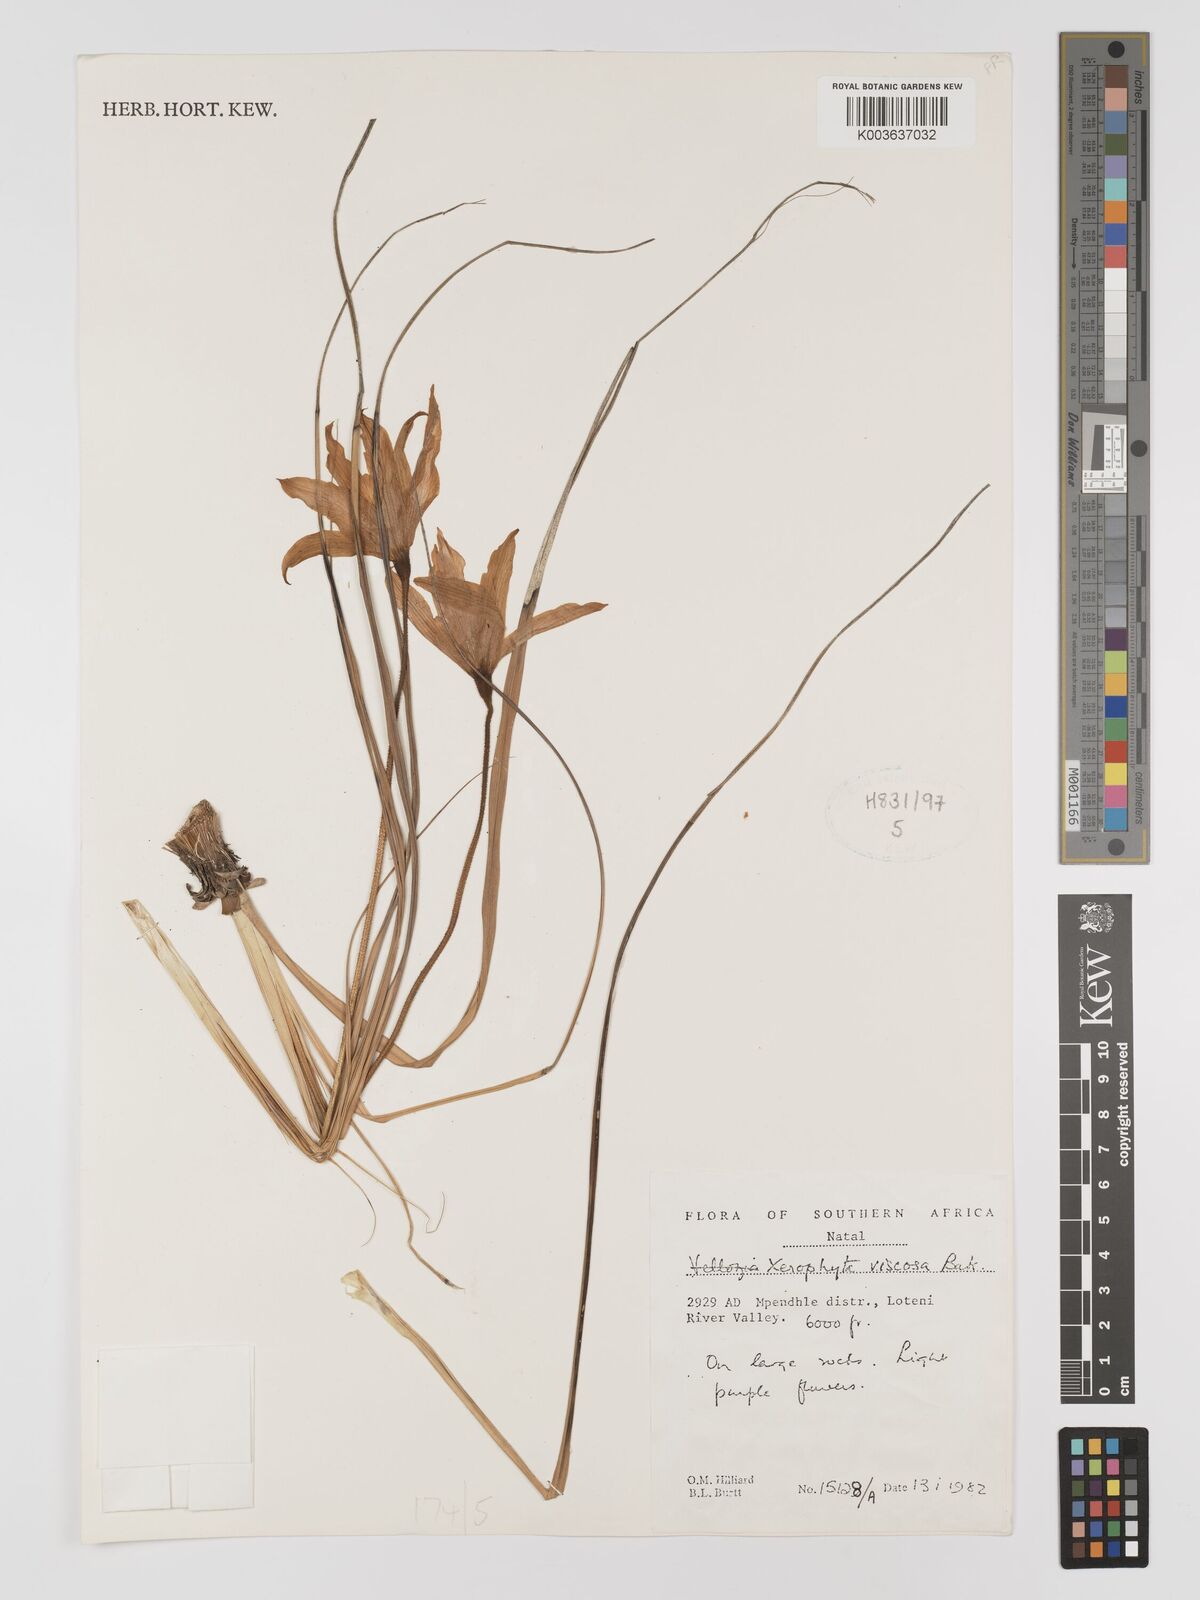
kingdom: Plantae
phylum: Tracheophyta
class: Liliopsida
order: Pandanales
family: Velloziaceae
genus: Xerophyta
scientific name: Xerophyta viscosa
